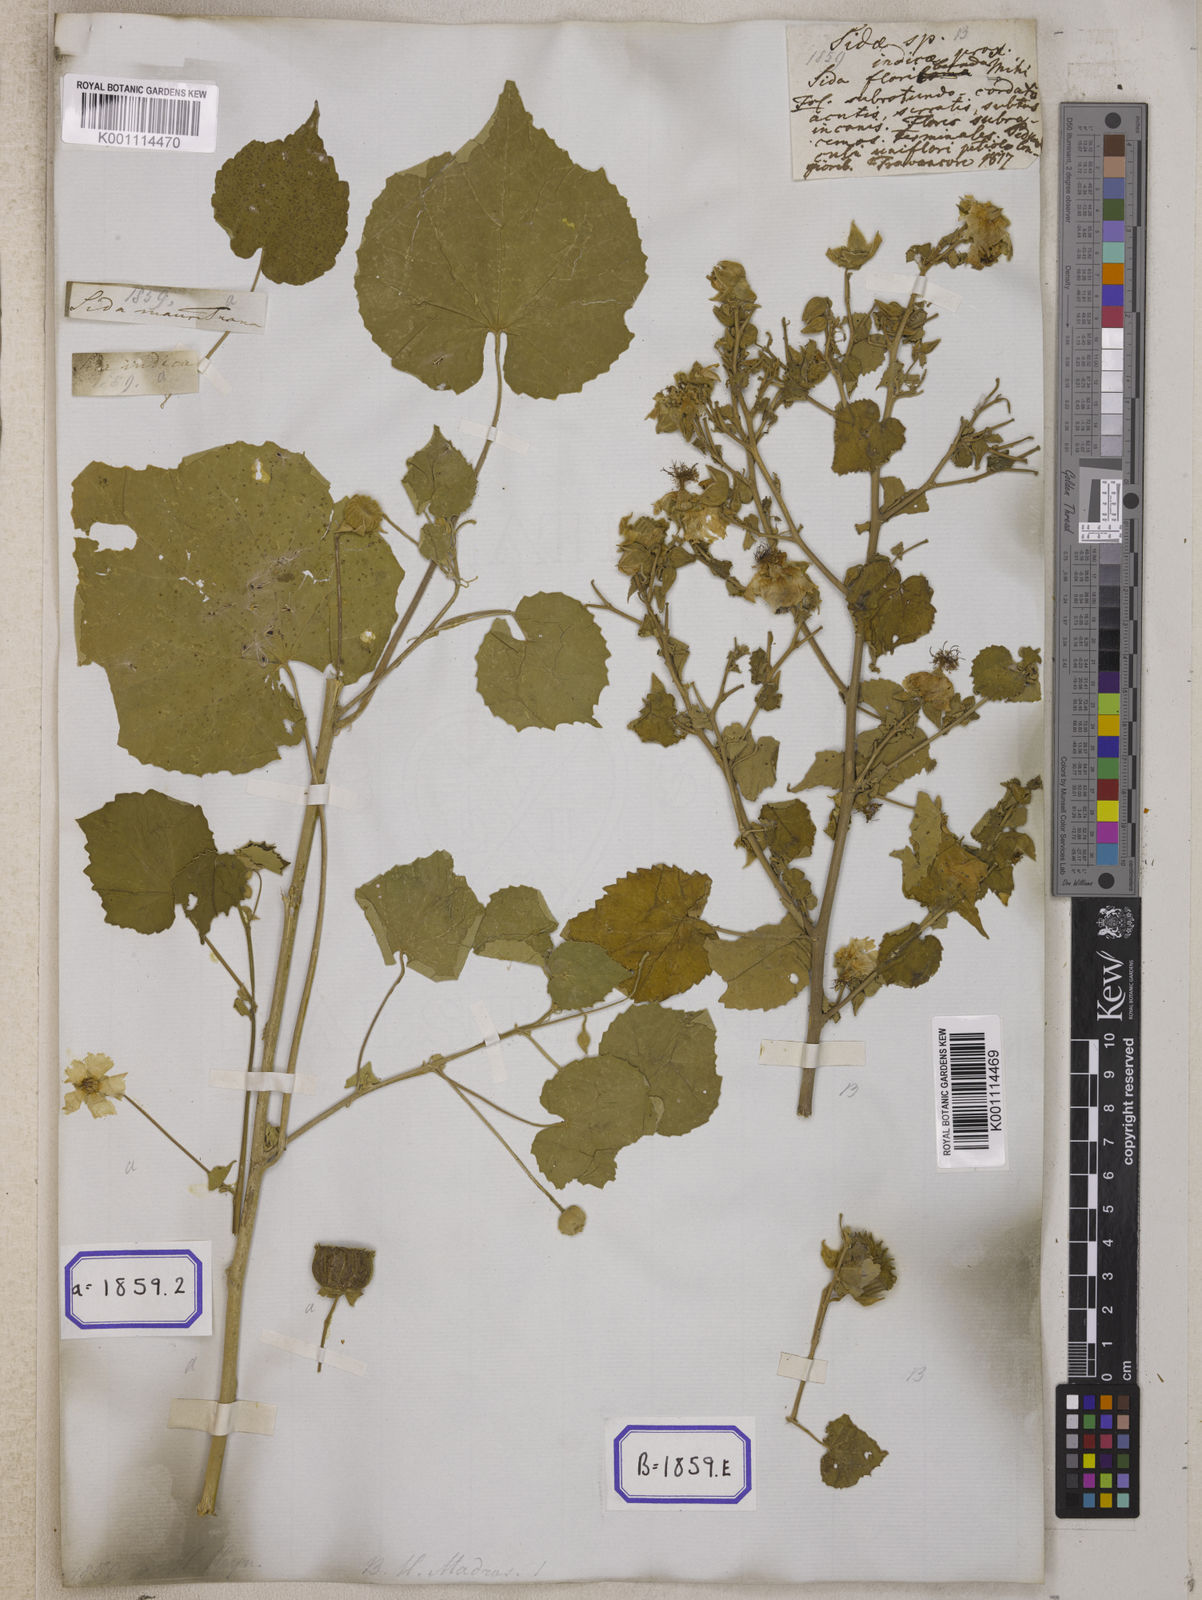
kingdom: Plantae
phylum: Tracheophyta
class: Magnoliopsida
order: Malvales
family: Malvaceae
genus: Abutilon
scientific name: Abutilon indicum
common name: Indian abutilon
